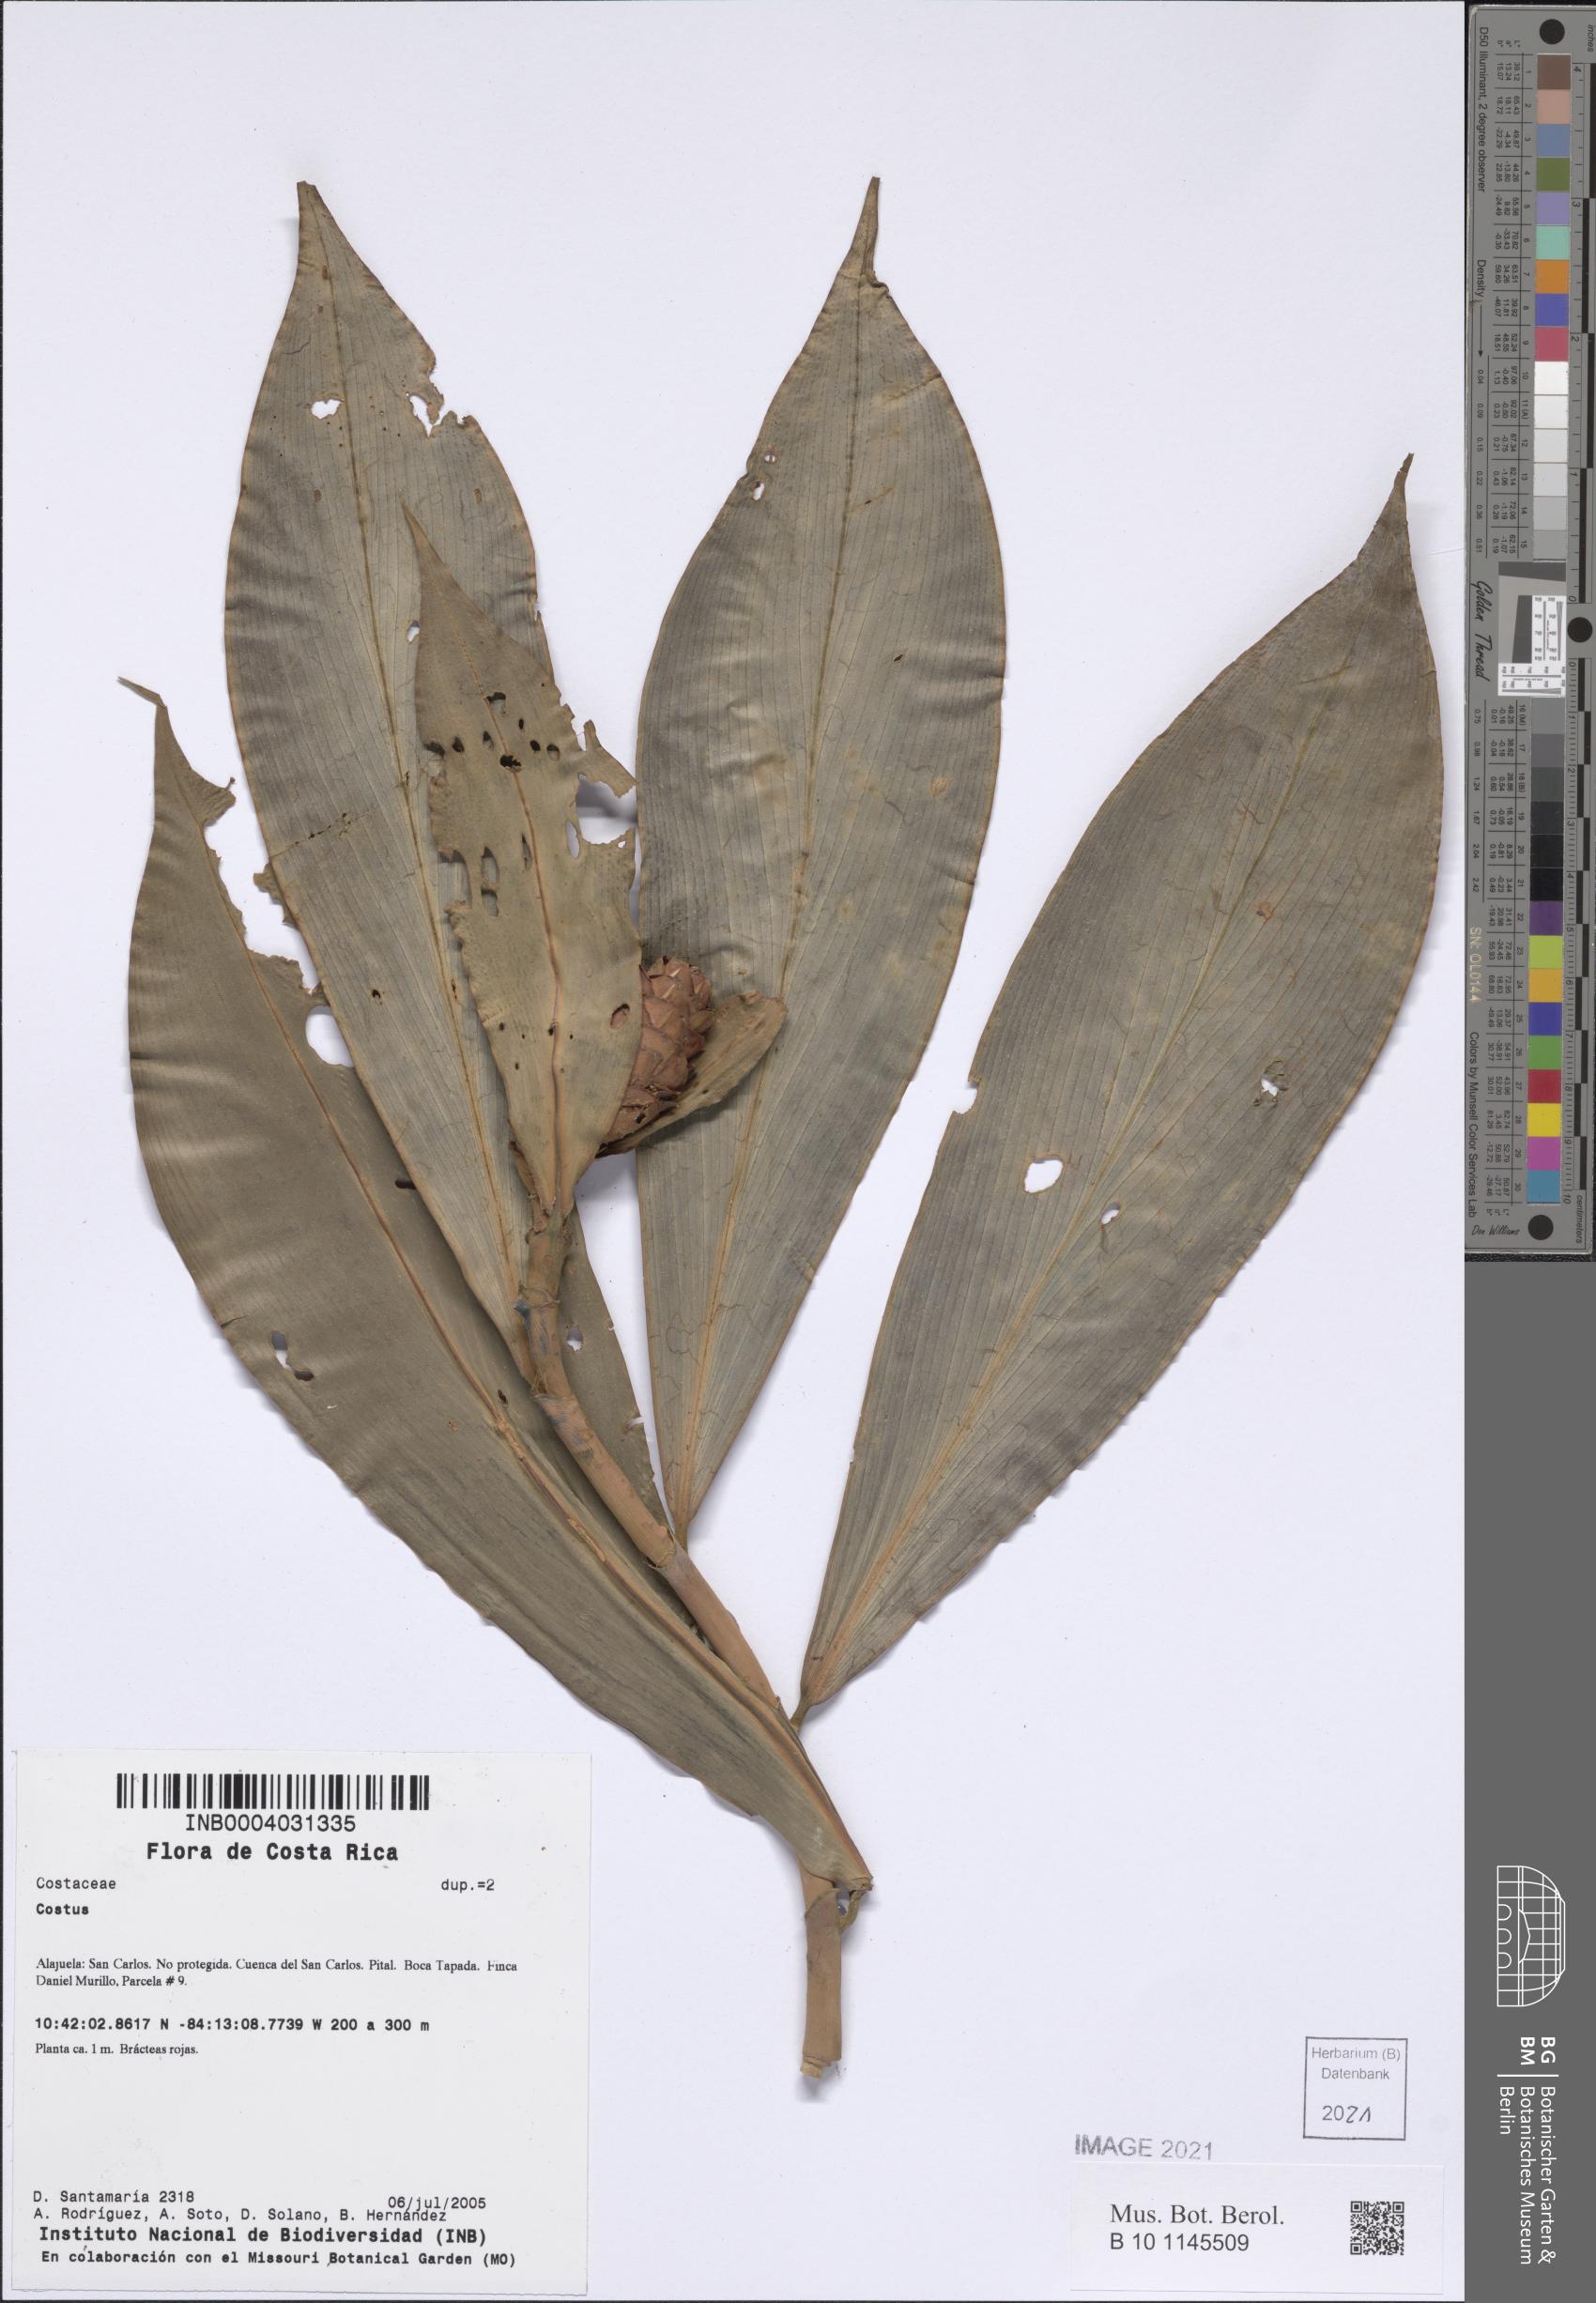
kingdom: Plantae
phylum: Tracheophyta
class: Liliopsida
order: Zingiberales
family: Costaceae
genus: Costus
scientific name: Costus
